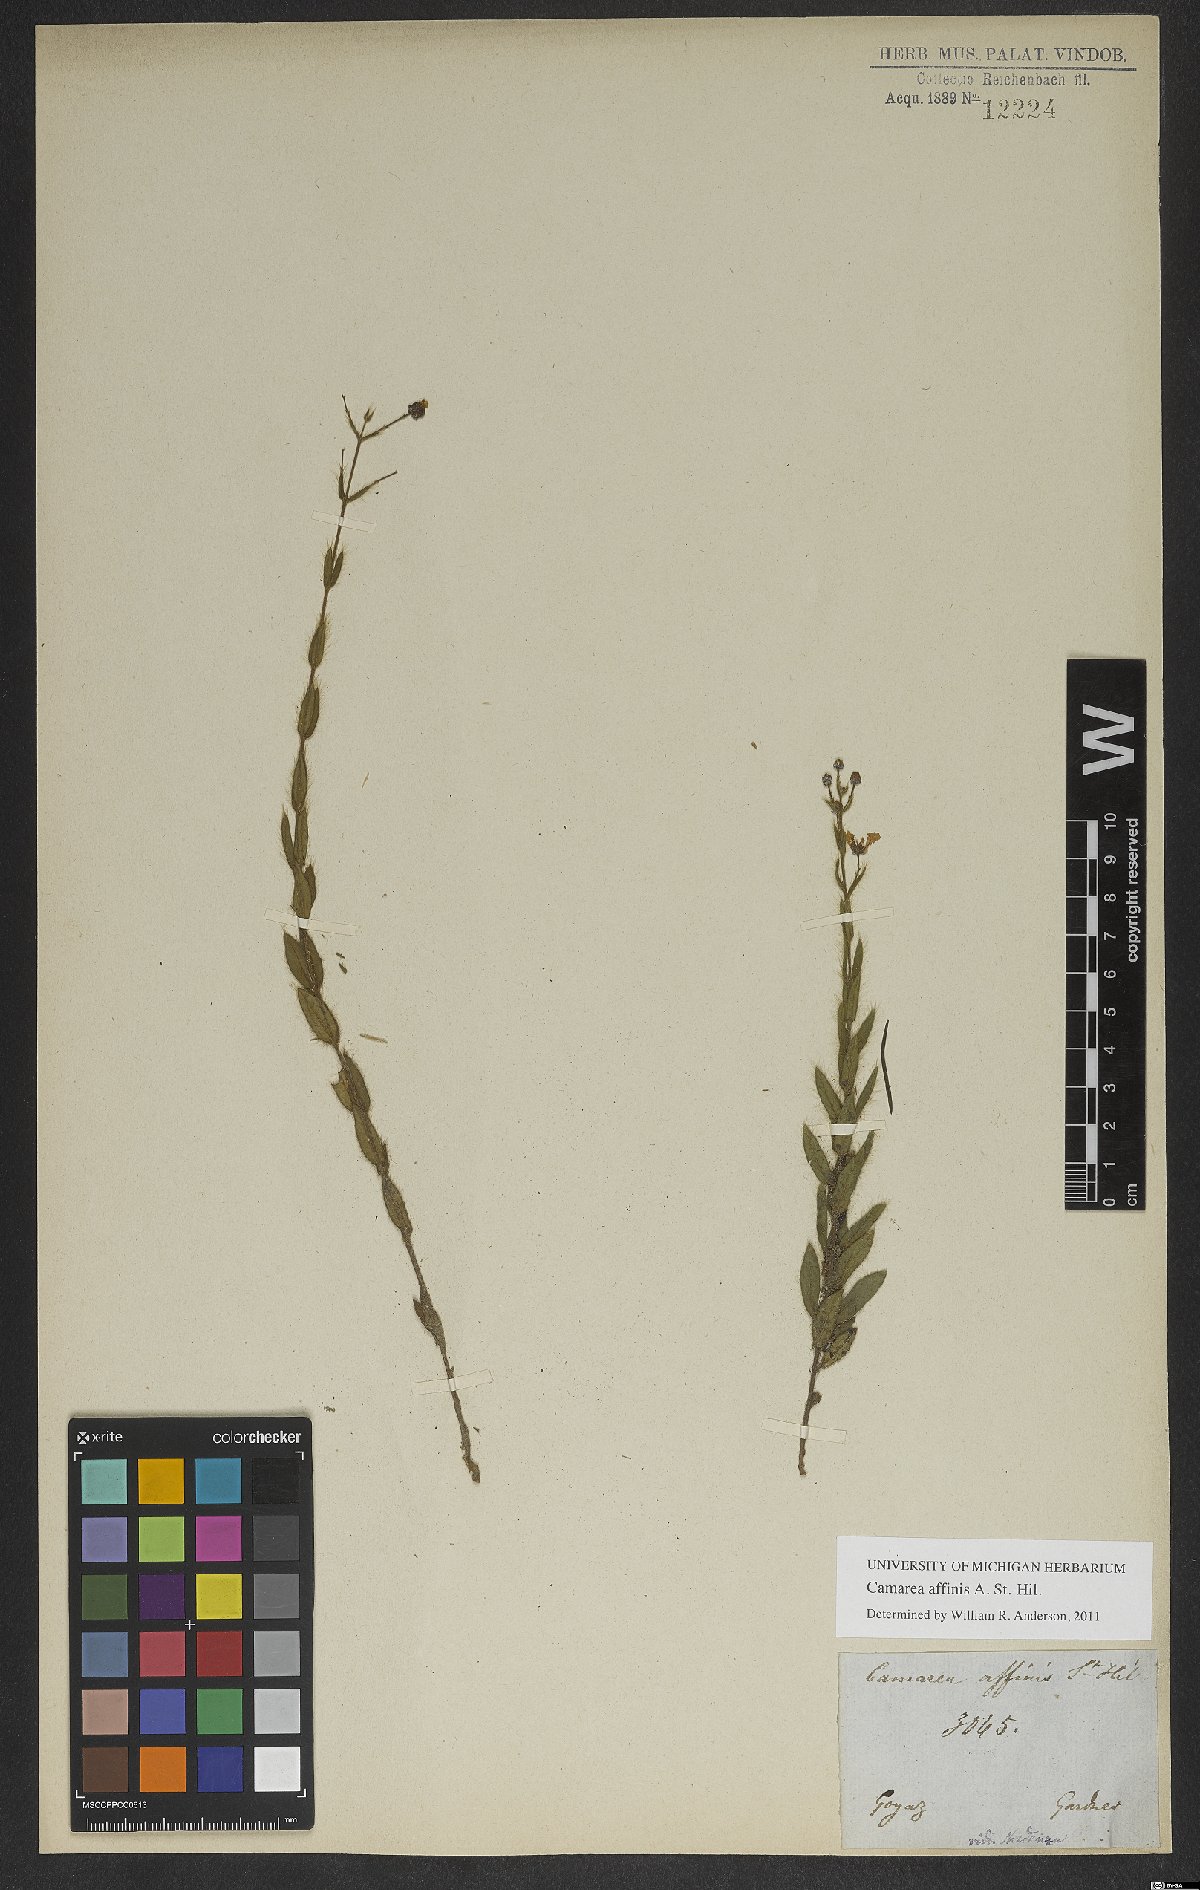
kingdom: Plantae
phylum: Tracheophyta
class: Magnoliopsida
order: Malpighiales
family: Malpighiaceae
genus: Camarea
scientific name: Camarea affinis
